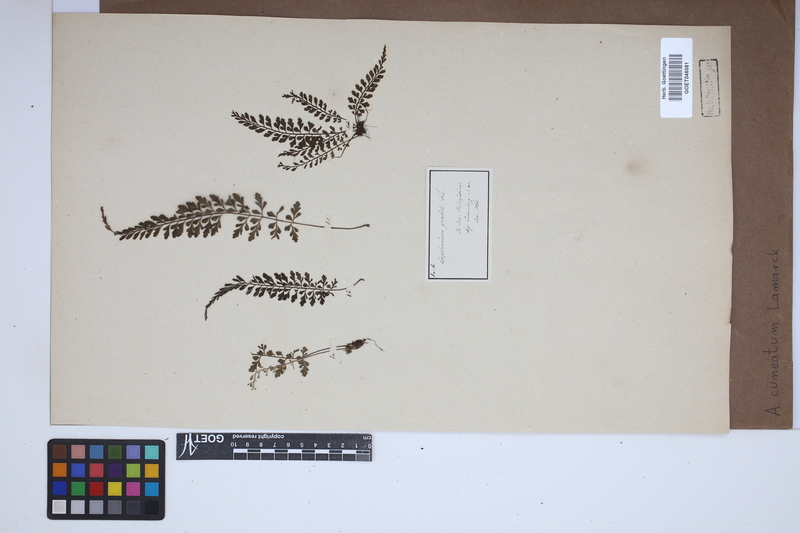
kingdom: Plantae
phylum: Tracheophyta
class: Polypodiopsida
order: Polypodiales
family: Aspleniaceae
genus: Asplenium
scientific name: Asplenium cuneatum
